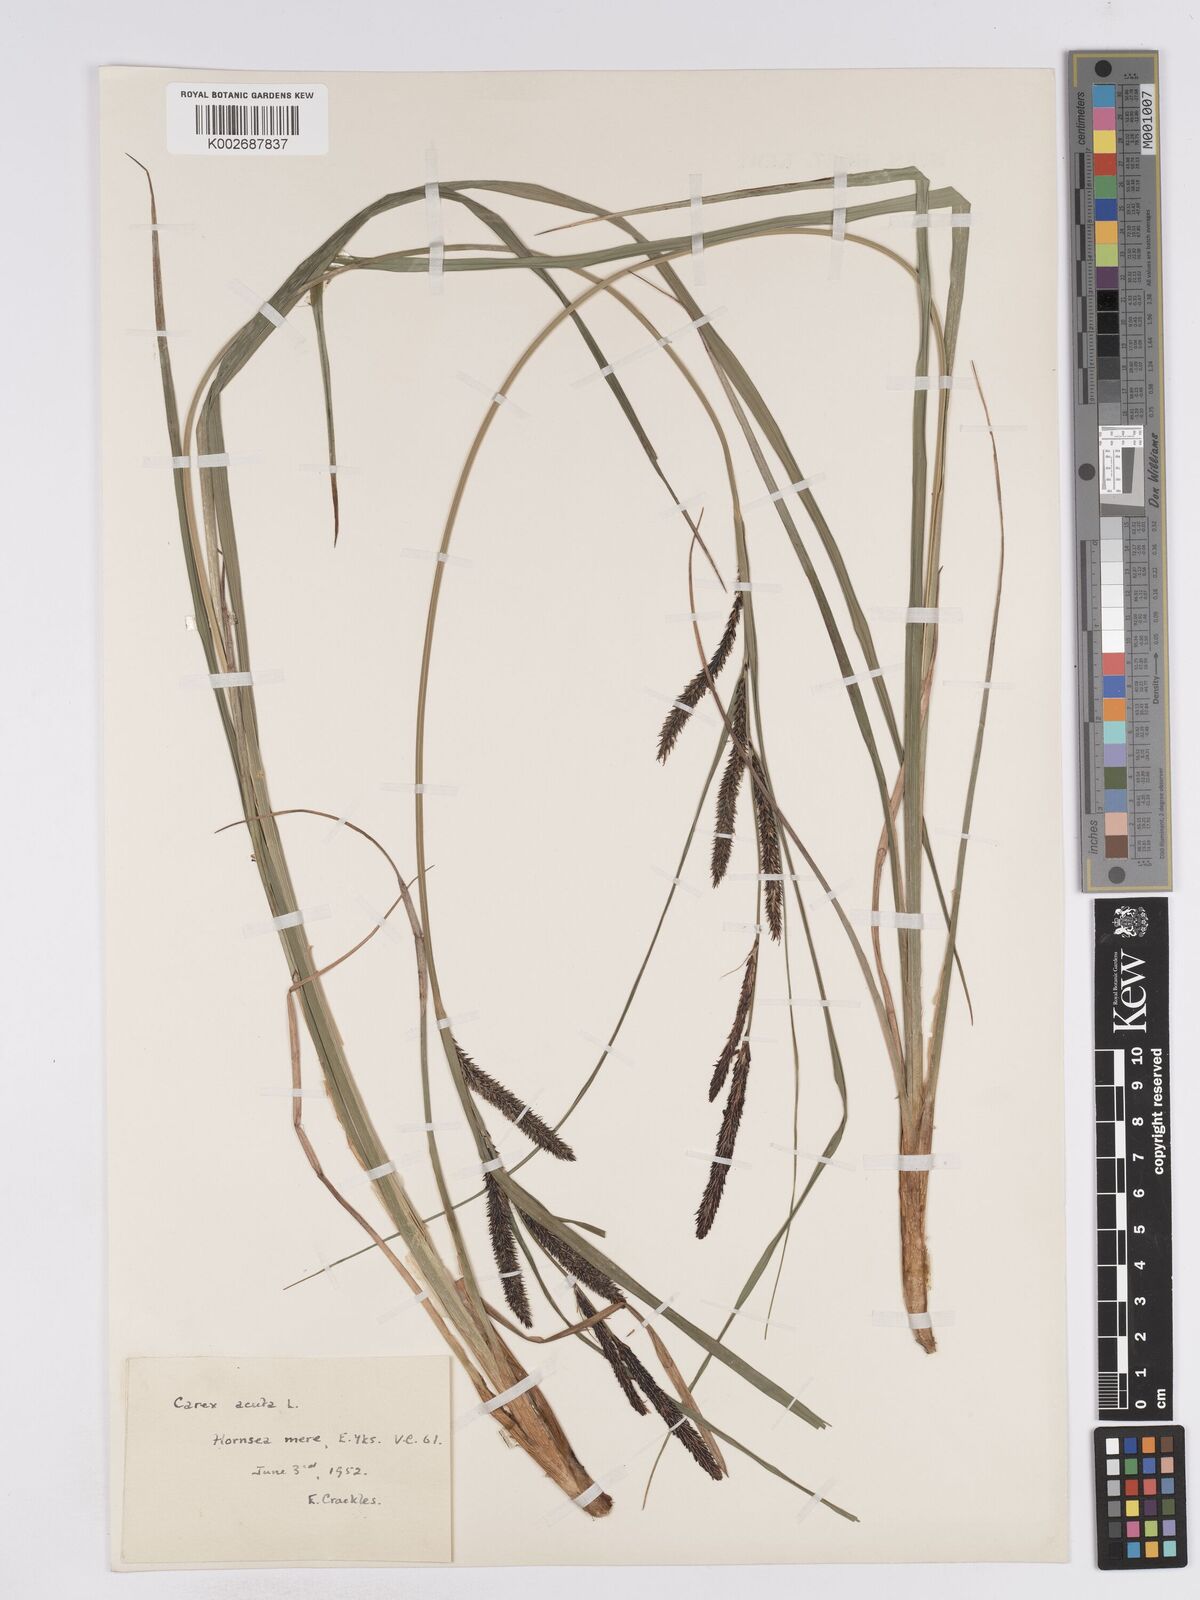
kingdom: Plantae
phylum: Tracheophyta
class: Liliopsida
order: Poales
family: Cyperaceae
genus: Carex
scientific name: Carex acuta
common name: Slender tufted-sedge
